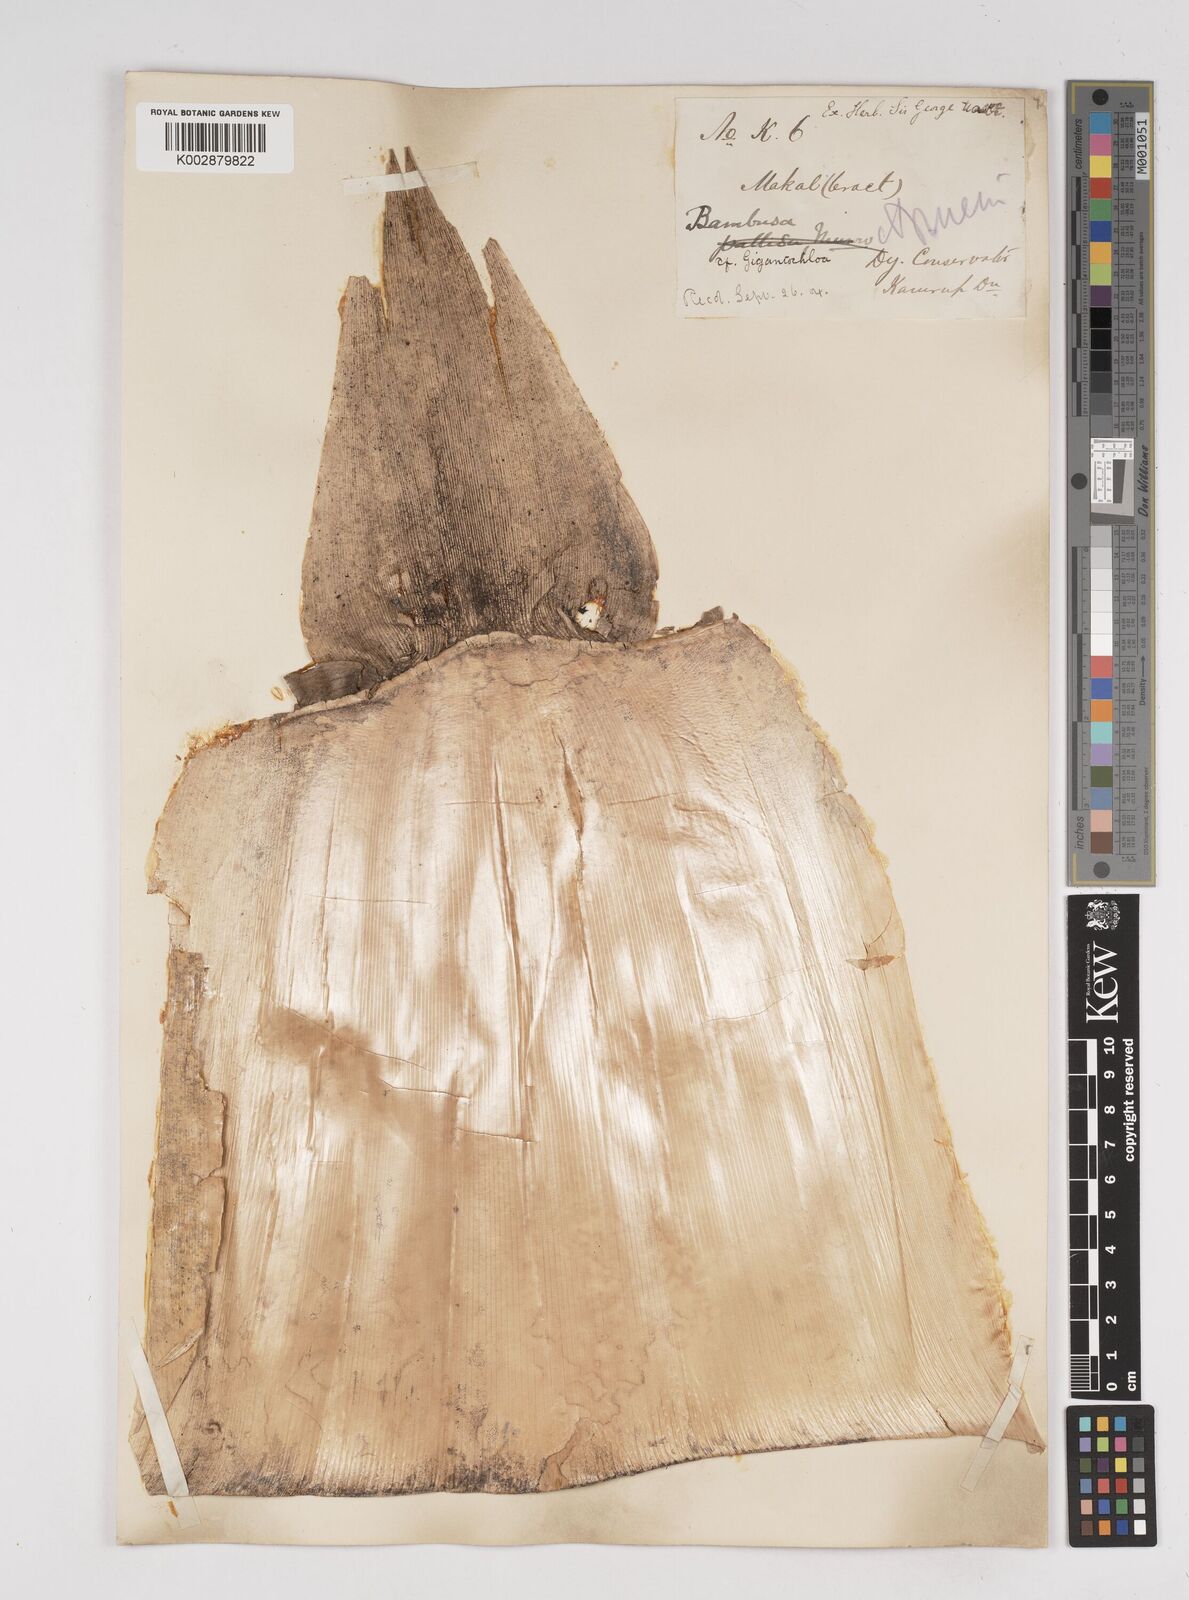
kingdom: Plantae
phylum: Tracheophyta
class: Liliopsida
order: Poales
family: Poaceae
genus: Gigantochloa
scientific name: Gigantochloa
